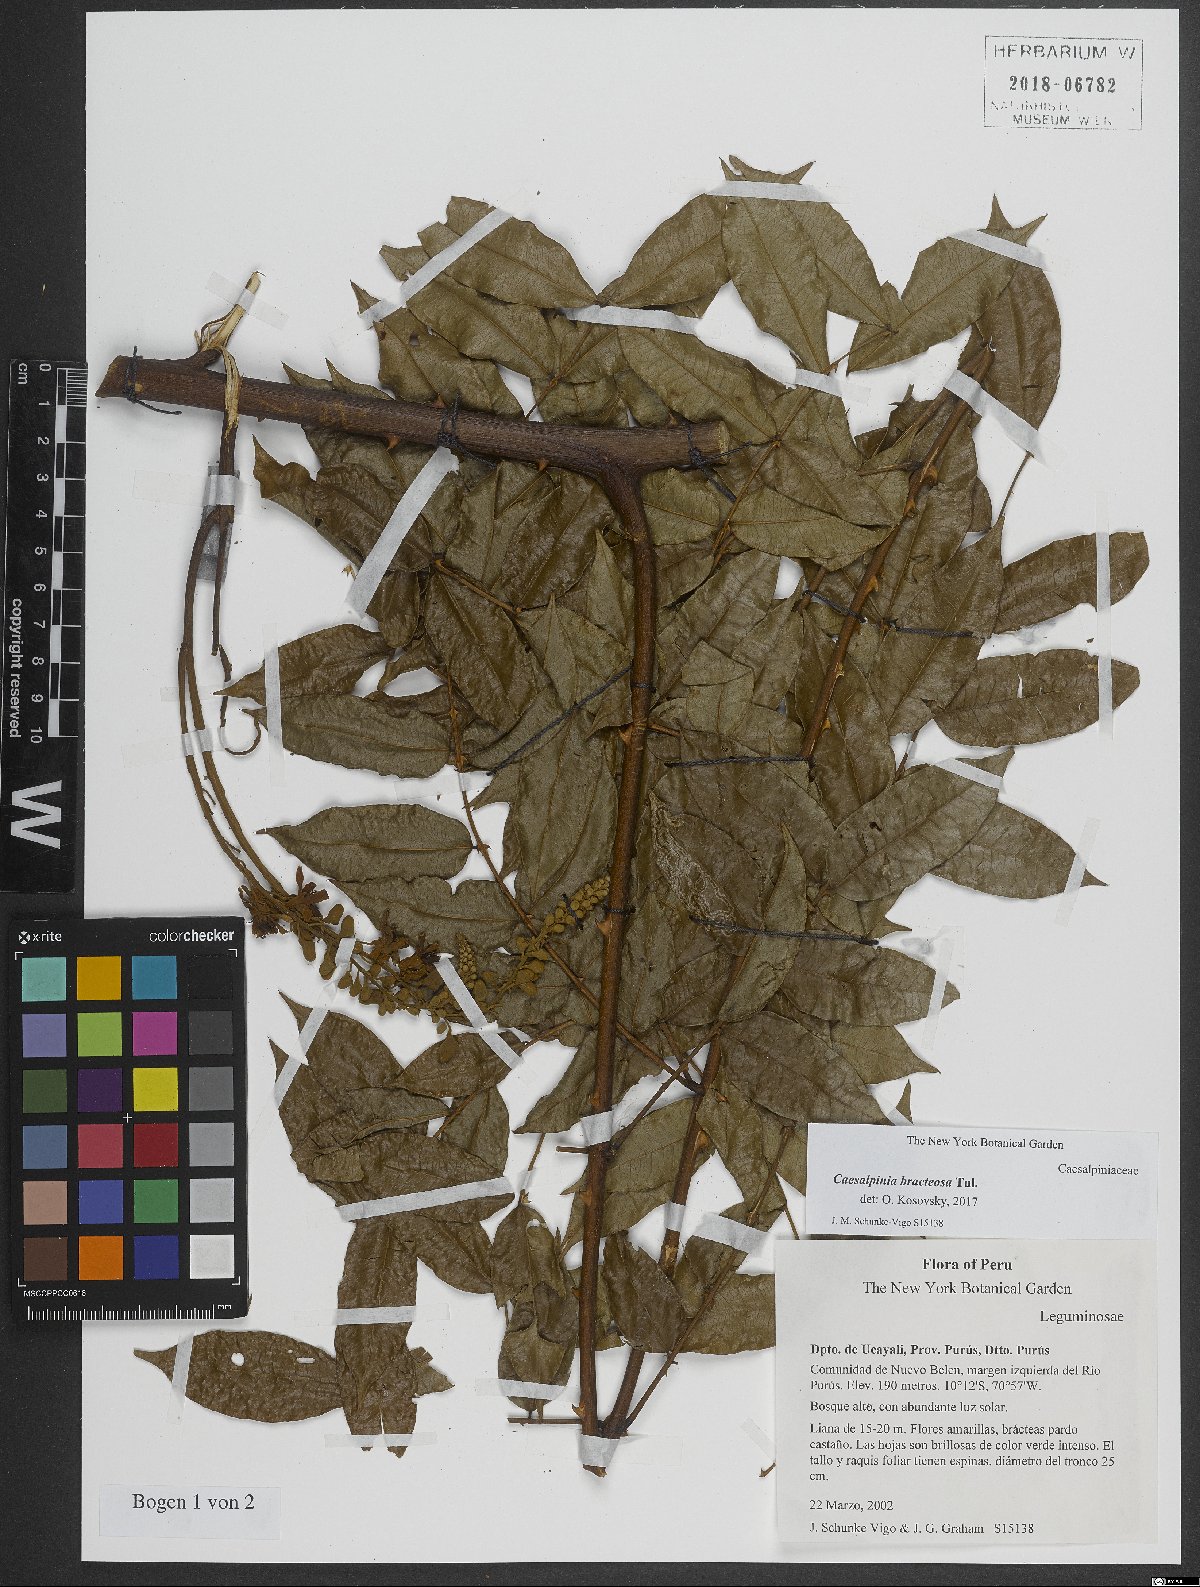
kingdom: Plantae
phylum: Tracheophyta
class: Magnoliopsida
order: Fabales
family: Fabaceae
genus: Cenostigma
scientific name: Cenostigma bracteosum
